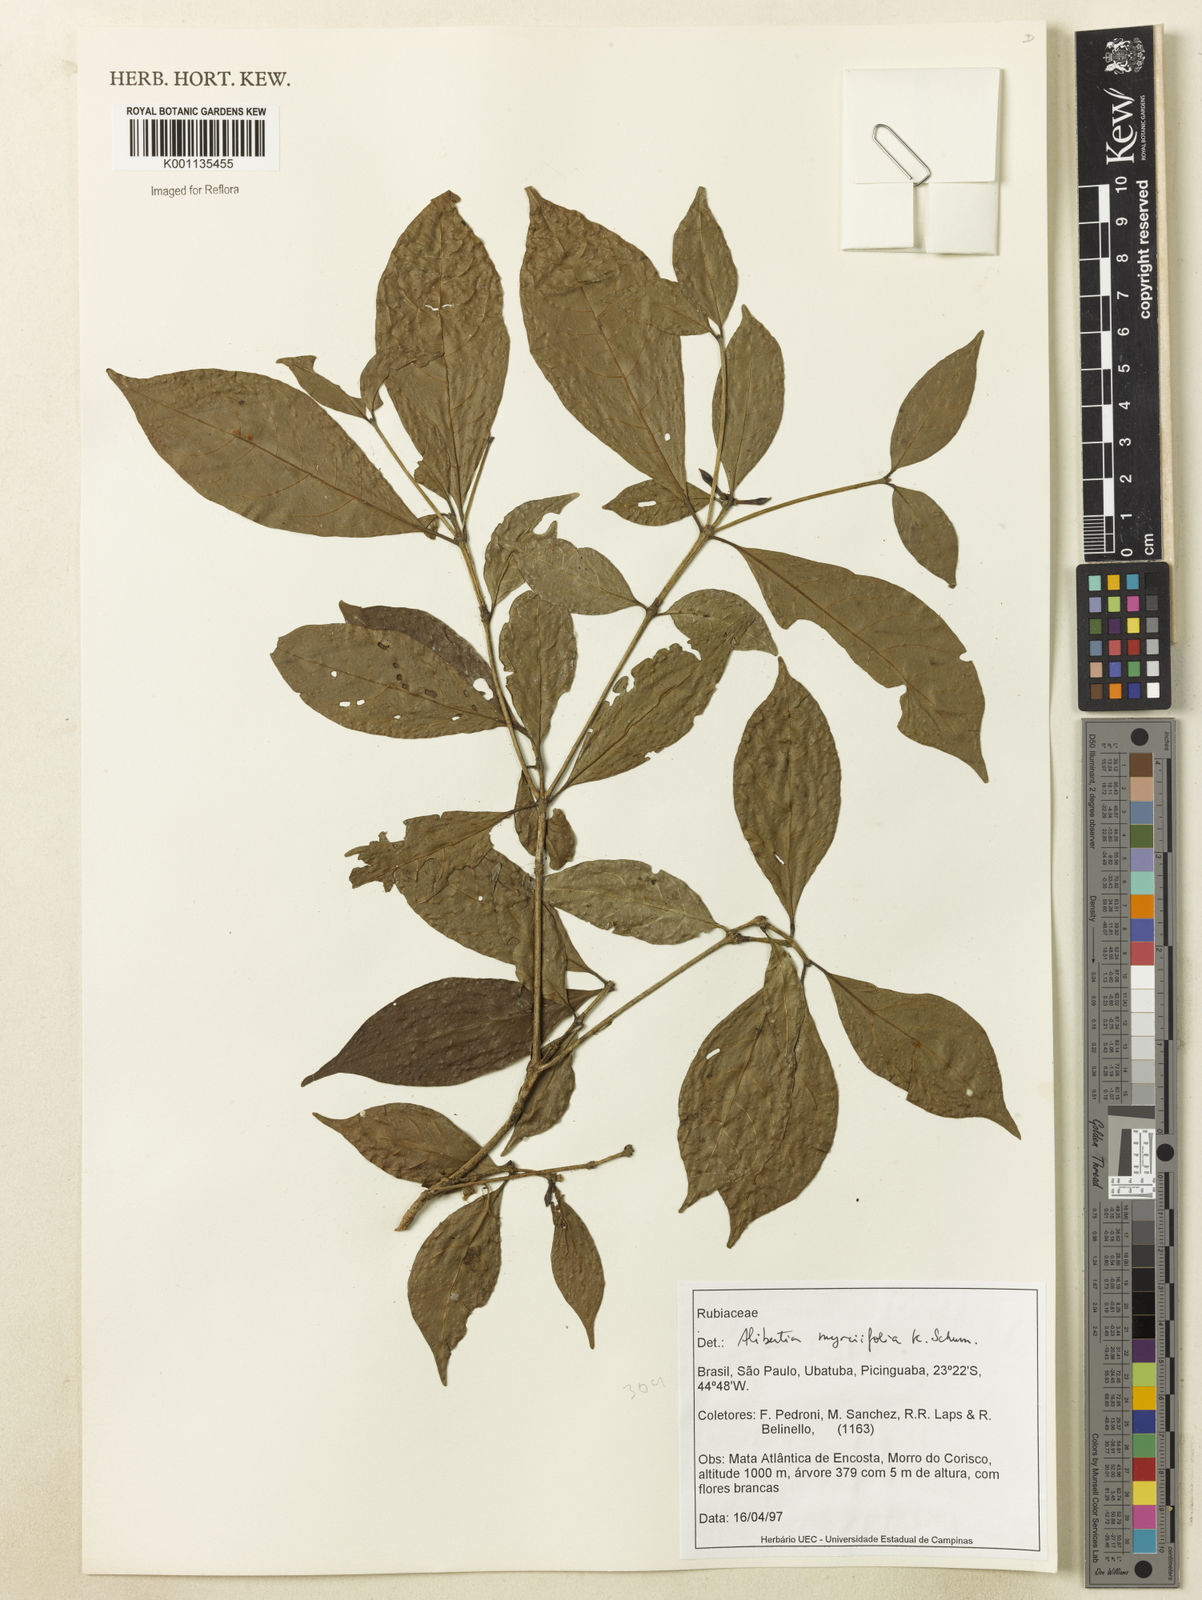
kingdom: Plantae
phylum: Tracheophyta
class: Magnoliopsida
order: Gentianales
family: Rubiaceae
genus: Cordiera
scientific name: Cordiera myrciifolia
